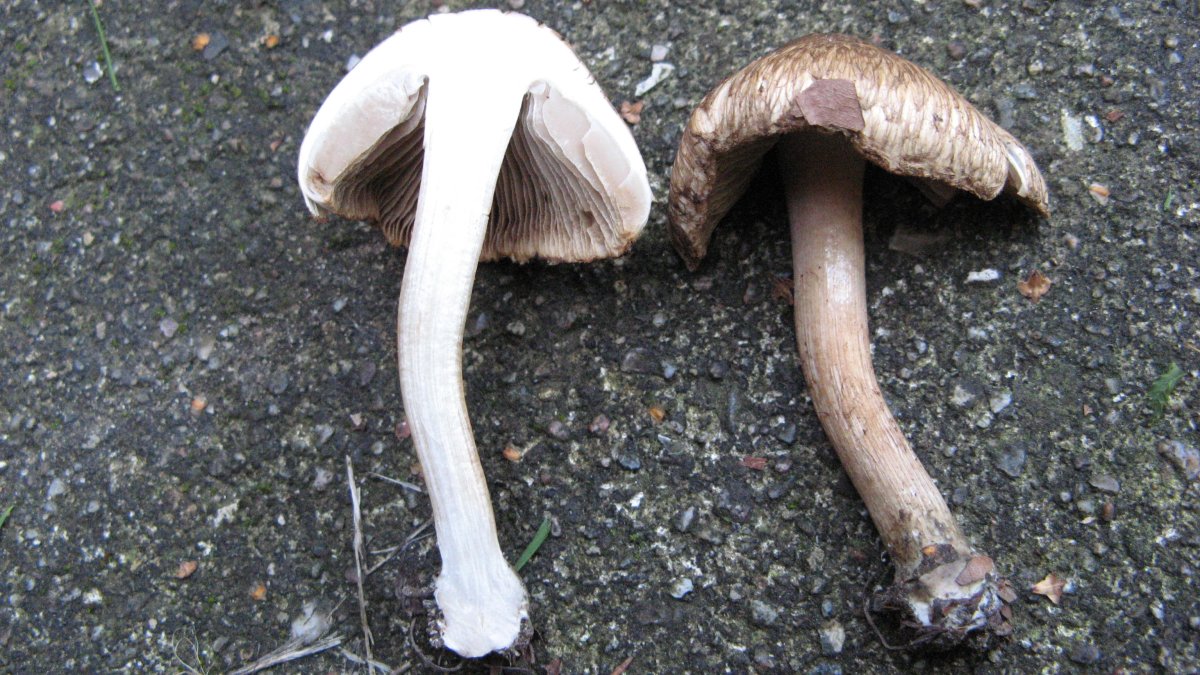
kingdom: Fungi
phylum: Basidiomycota
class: Agaricomycetes
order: Agaricales
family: Inocybaceae
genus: Inocybe
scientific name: Inocybe erinaceomorpha
